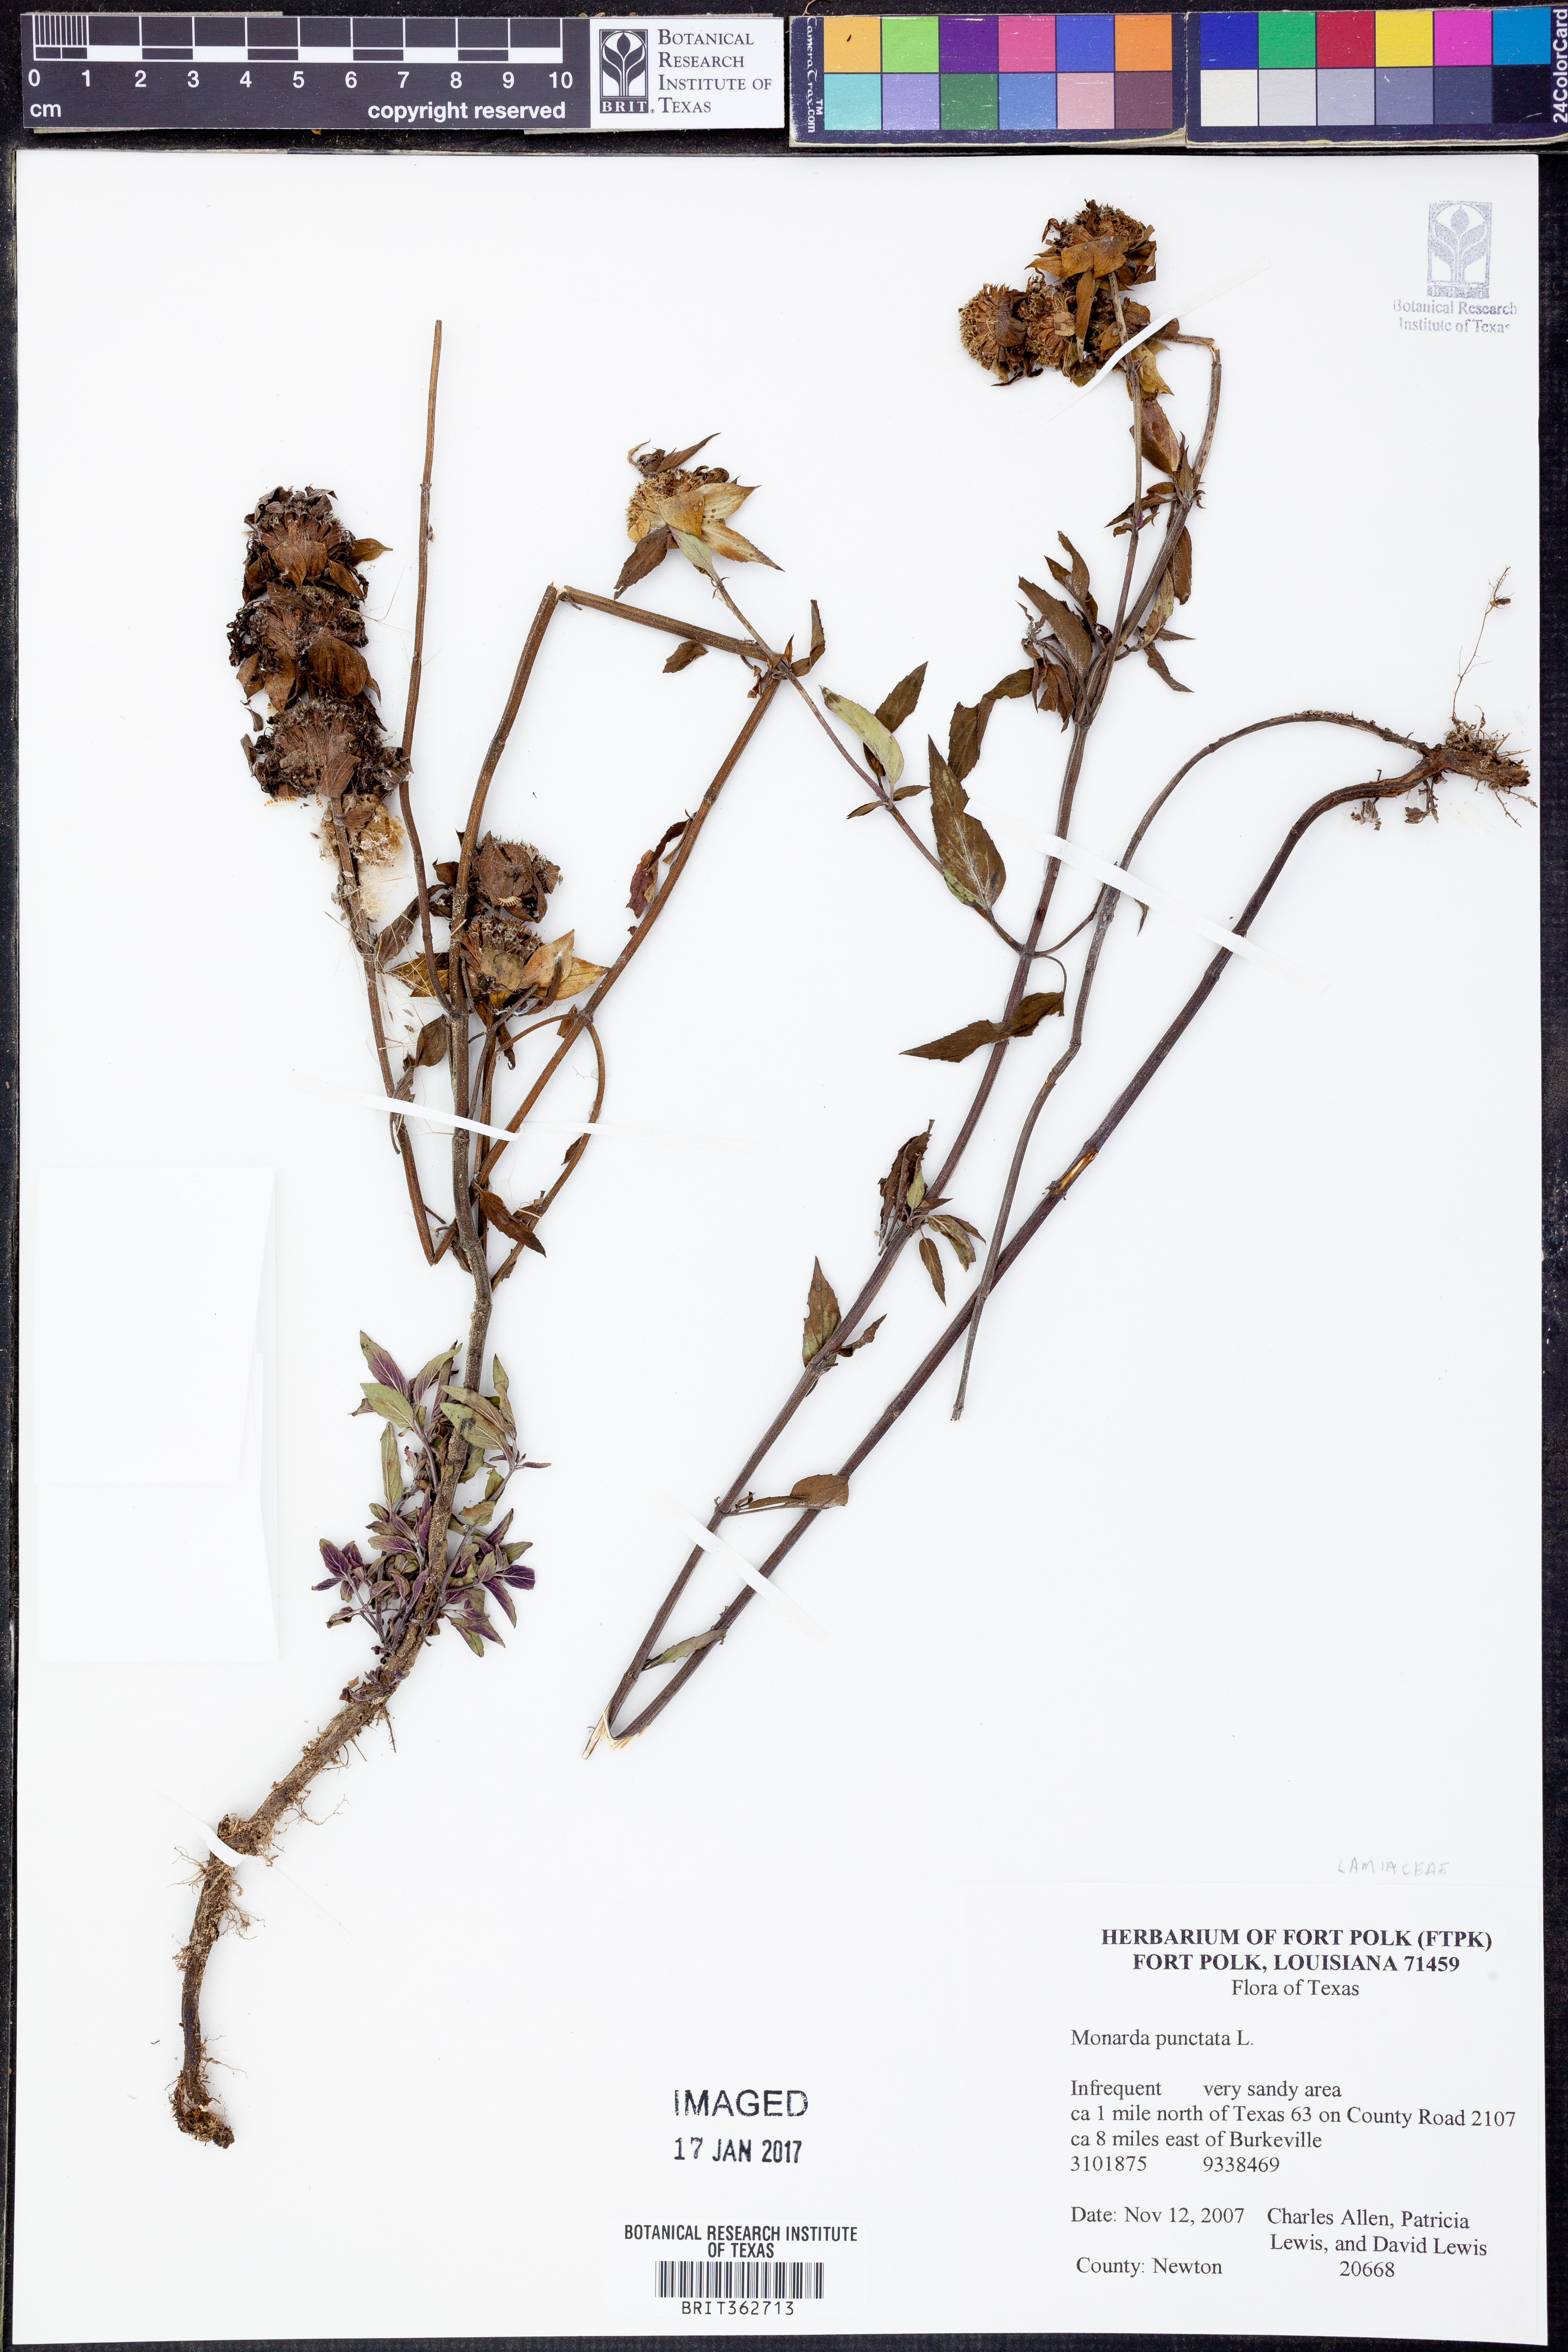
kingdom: Plantae
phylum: Tracheophyta
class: Magnoliopsida
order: Lamiales
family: Lamiaceae
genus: Monarda
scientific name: Monarda punctata
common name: Dotted monarda
